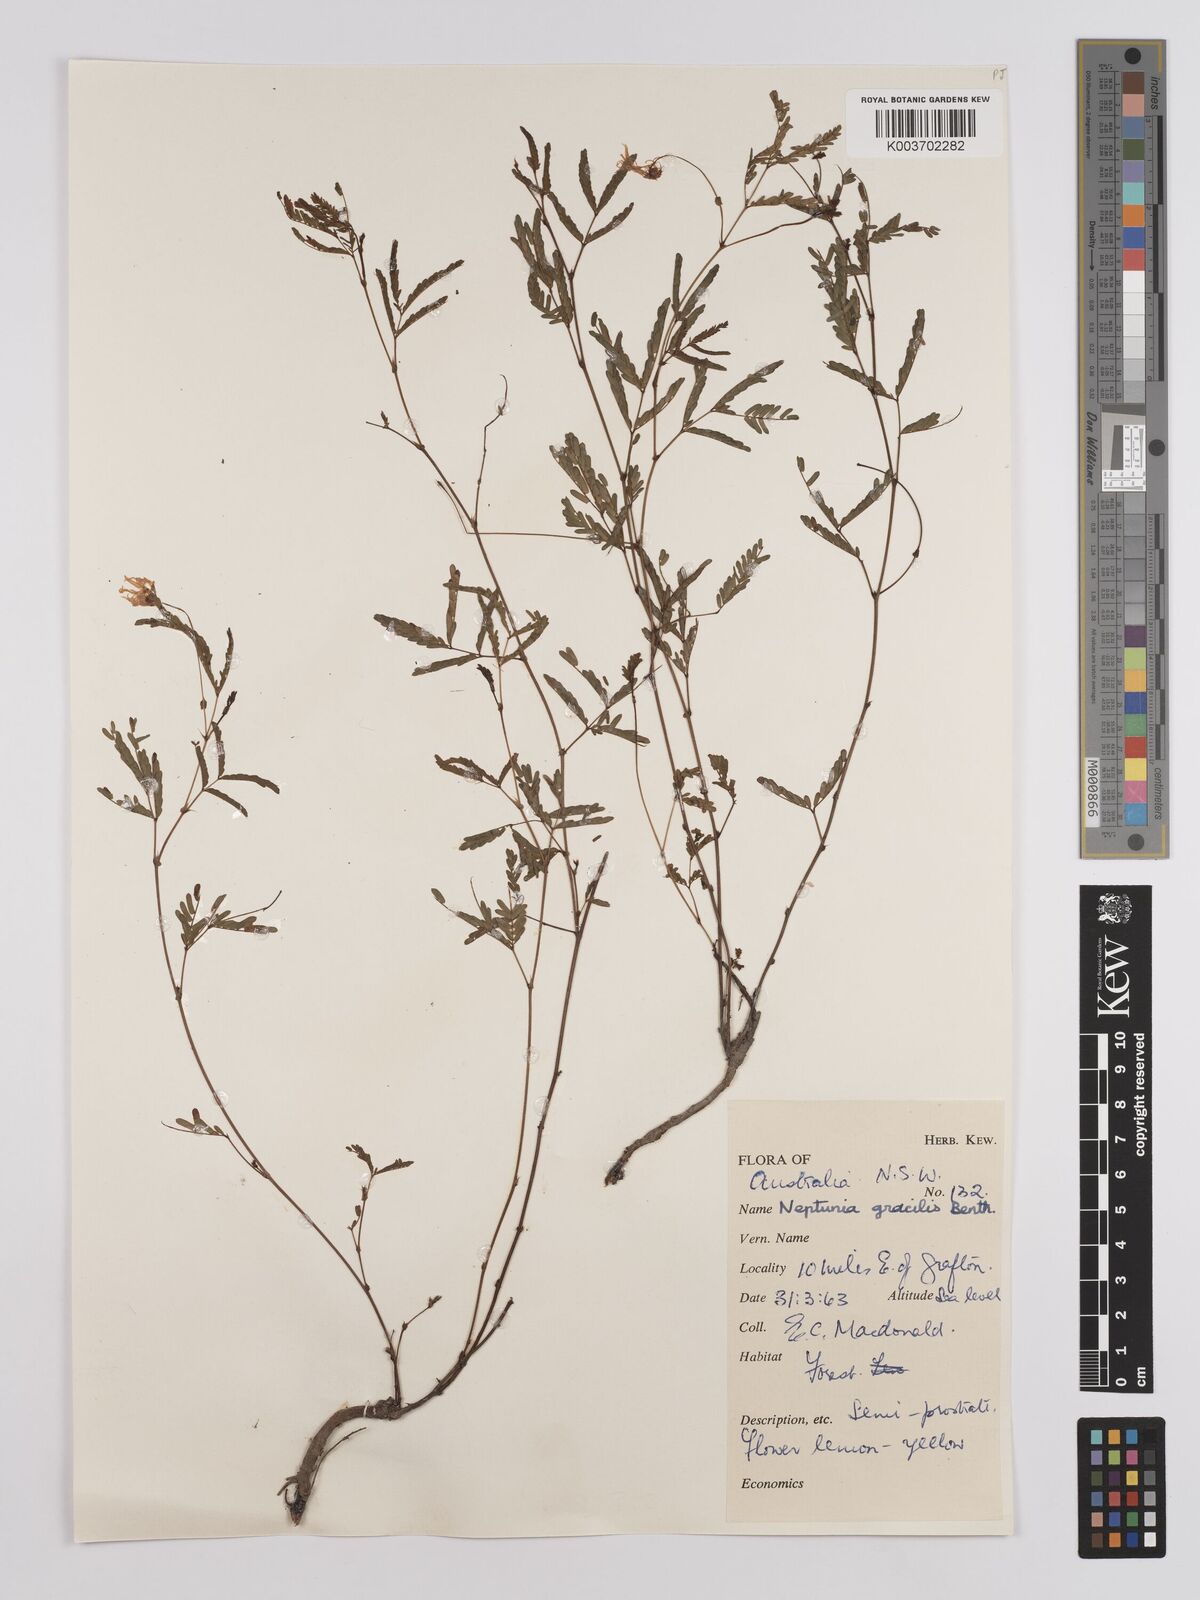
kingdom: Plantae
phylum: Tracheophyta
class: Magnoliopsida
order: Fabales
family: Fabaceae
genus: Neptunia
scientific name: Neptunia gracilis
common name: Sensitive-plant
